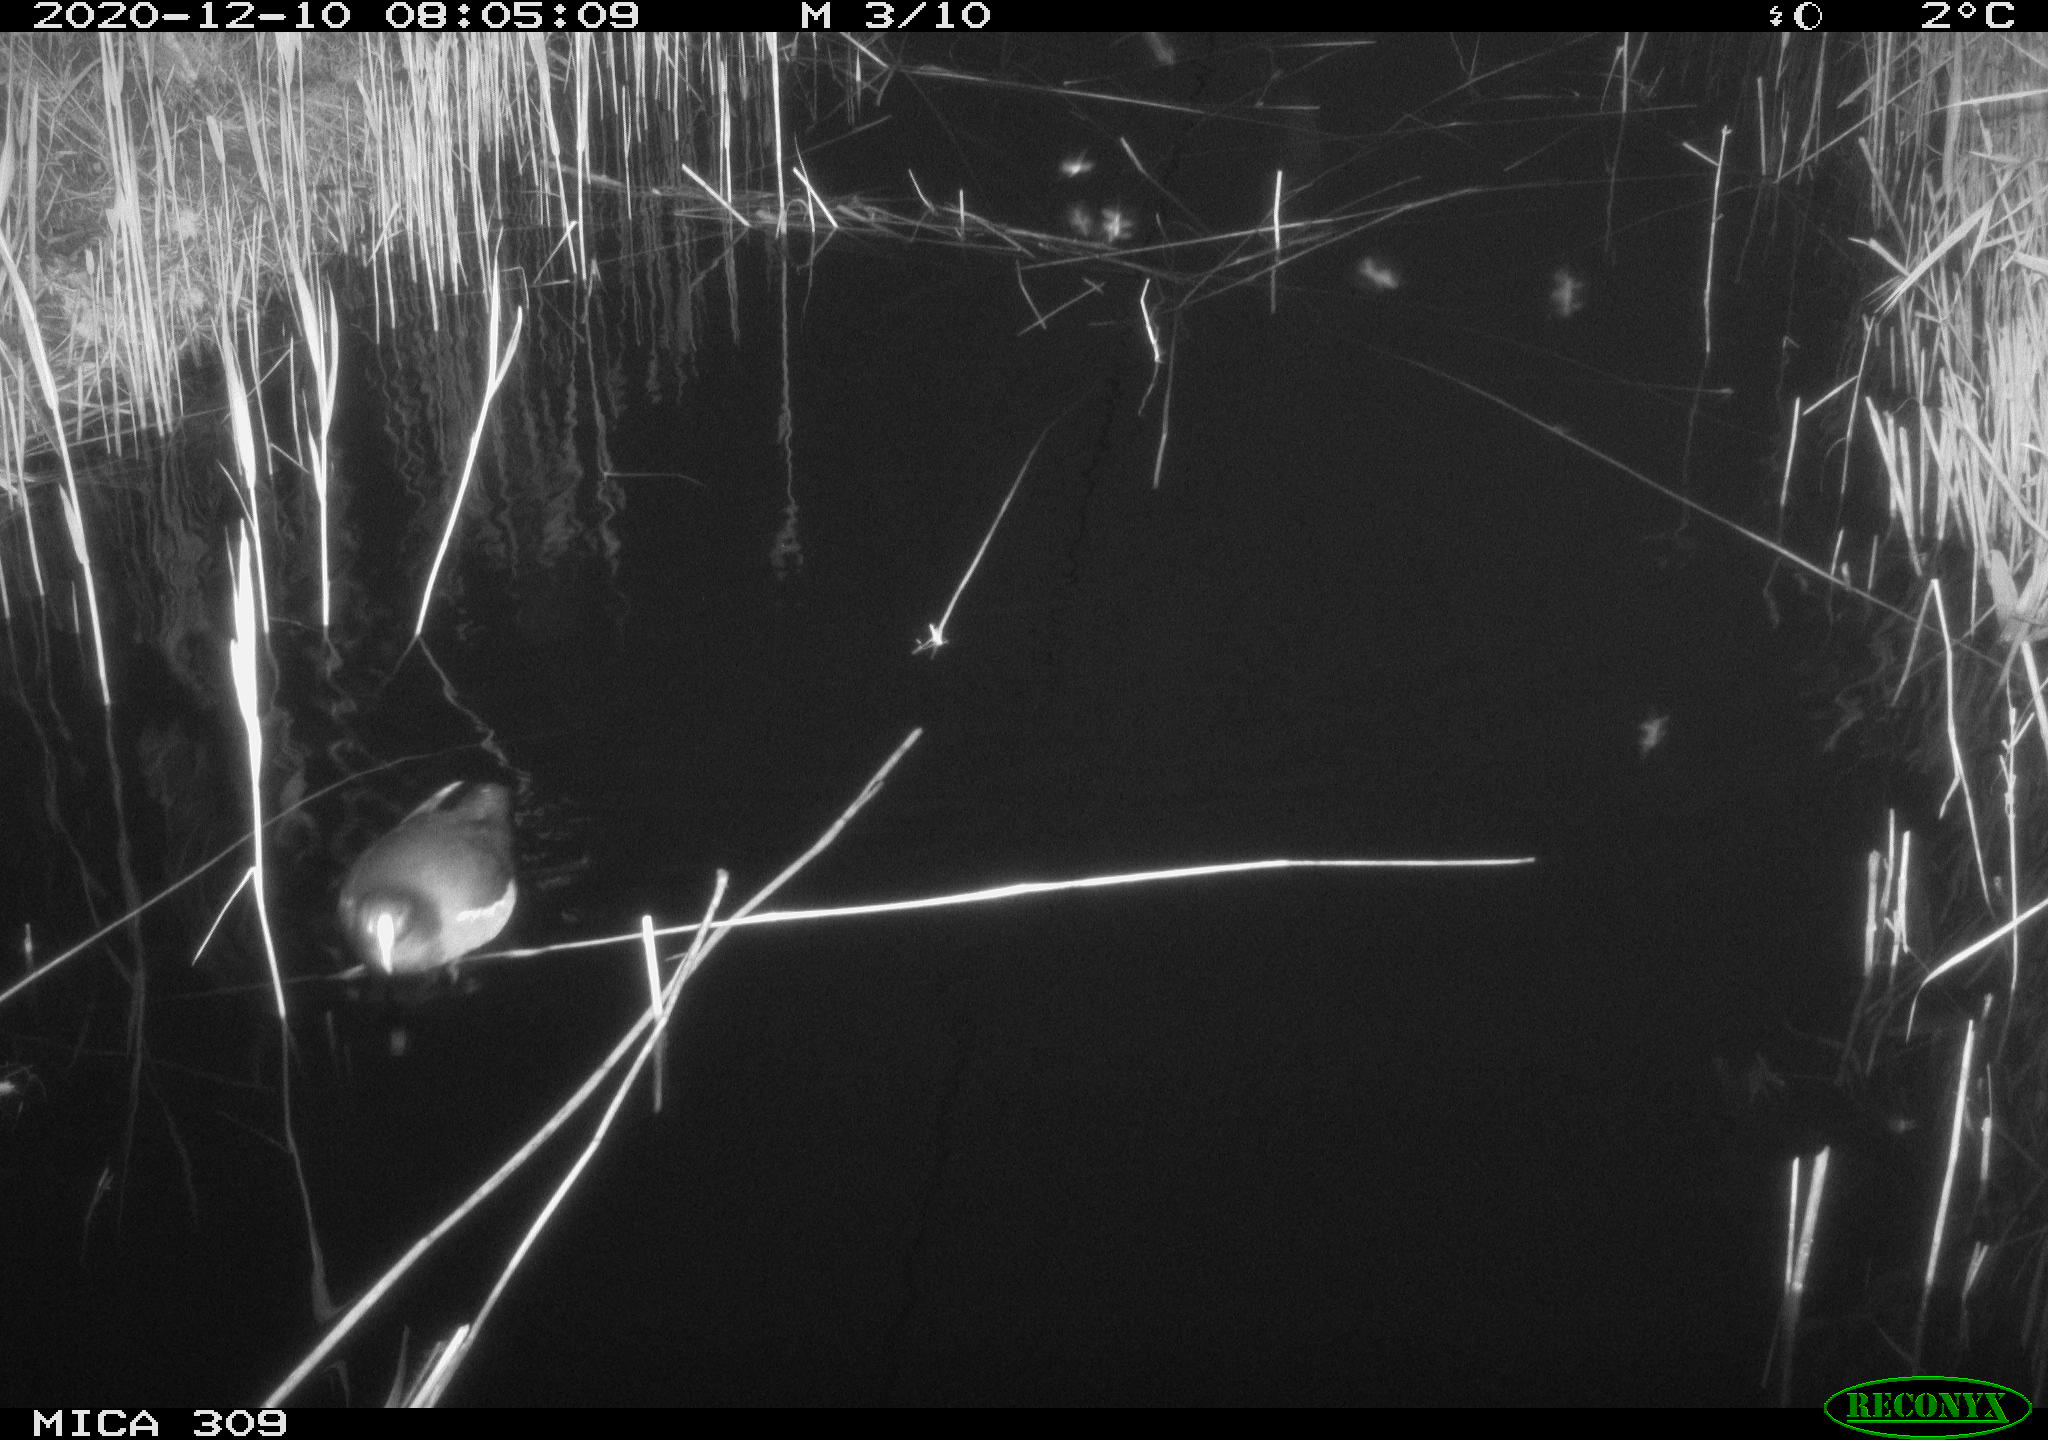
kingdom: Animalia
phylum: Chordata
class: Aves
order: Gruiformes
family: Rallidae
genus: Gallinula
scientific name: Gallinula chloropus
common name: Common moorhen
